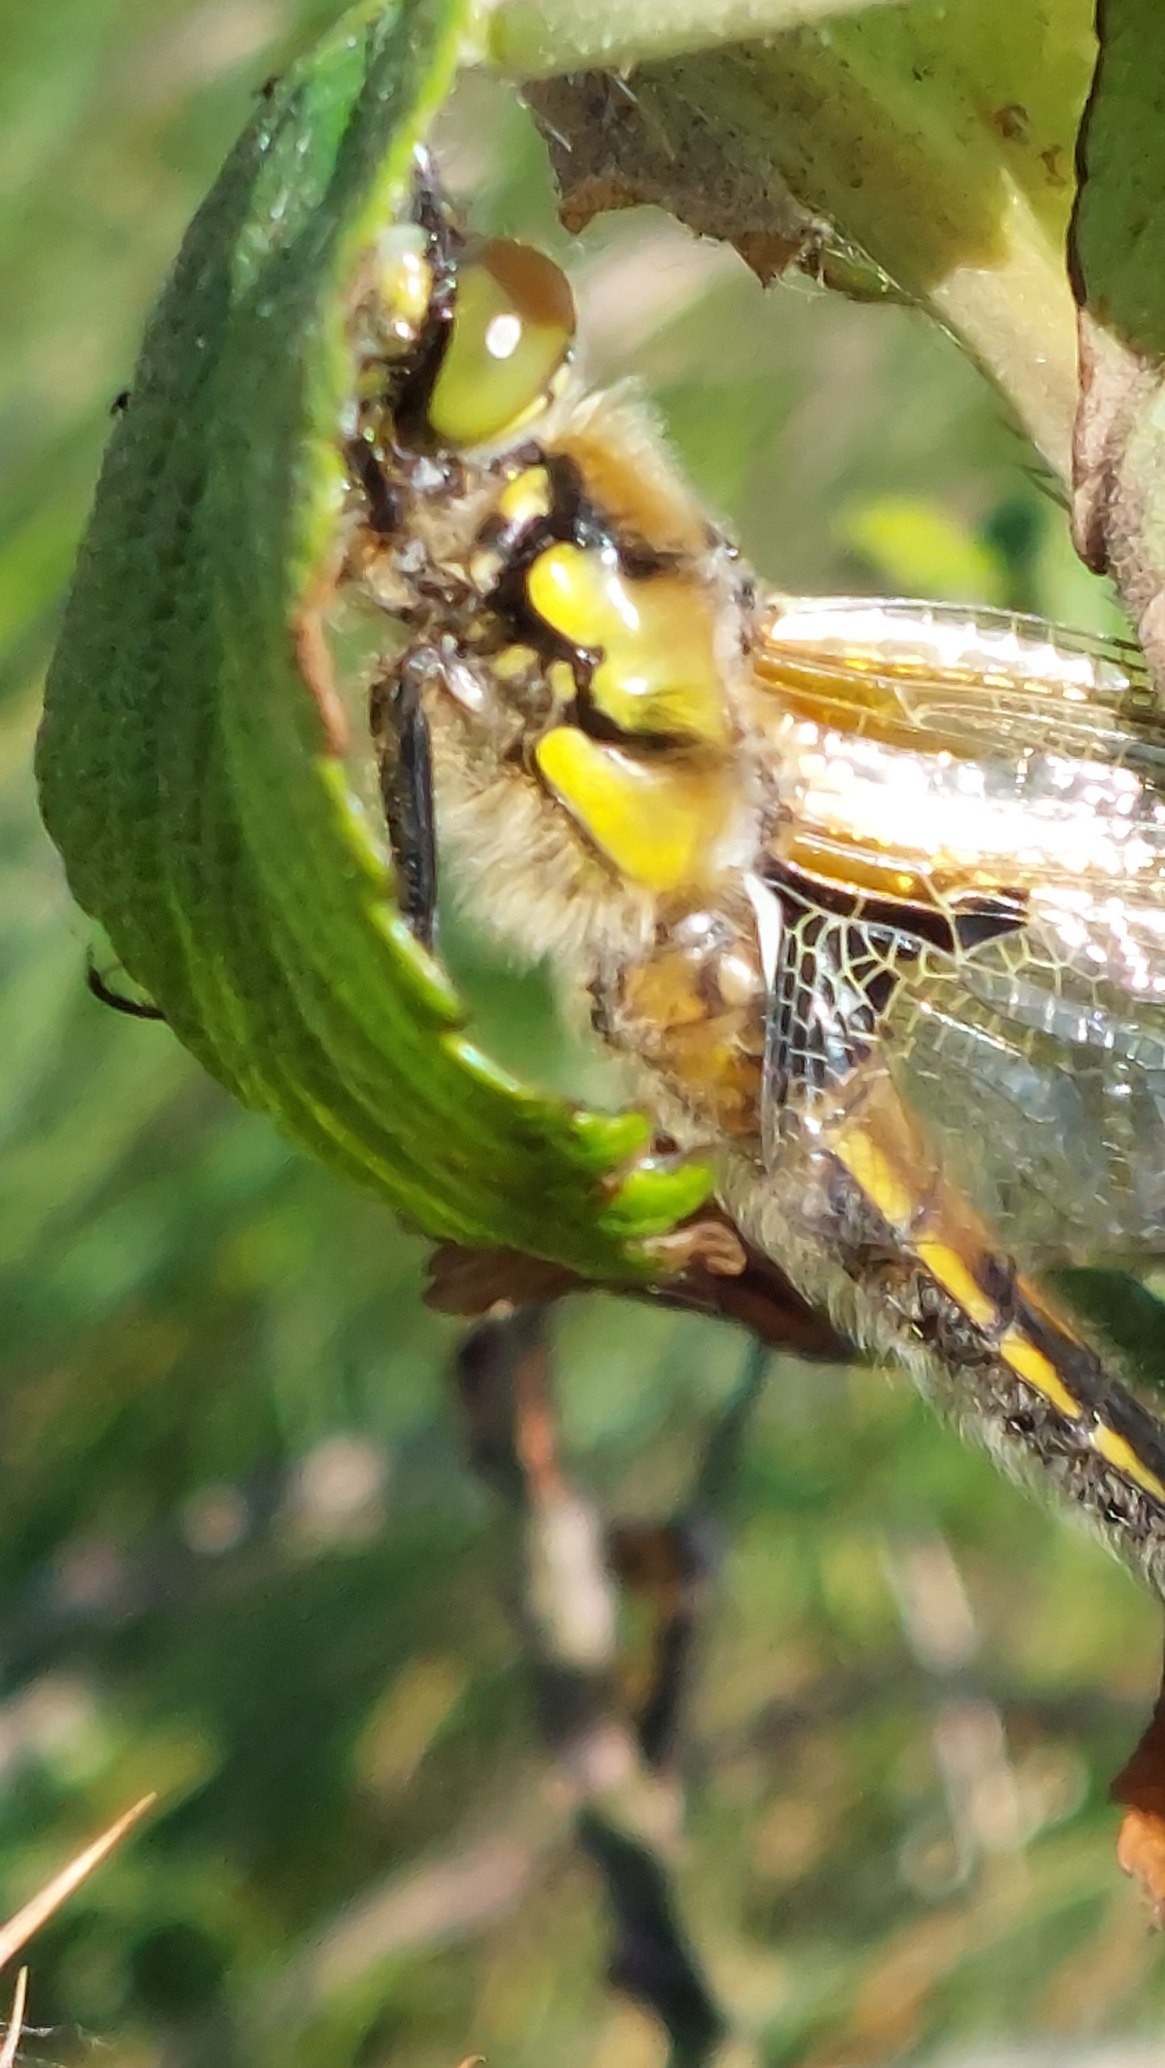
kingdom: Animalia
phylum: Arthropoda
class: Insecta
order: Odonata
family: Libellulidae
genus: Libellula
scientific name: Libellula quadrimaculata
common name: Fireplettet libel
